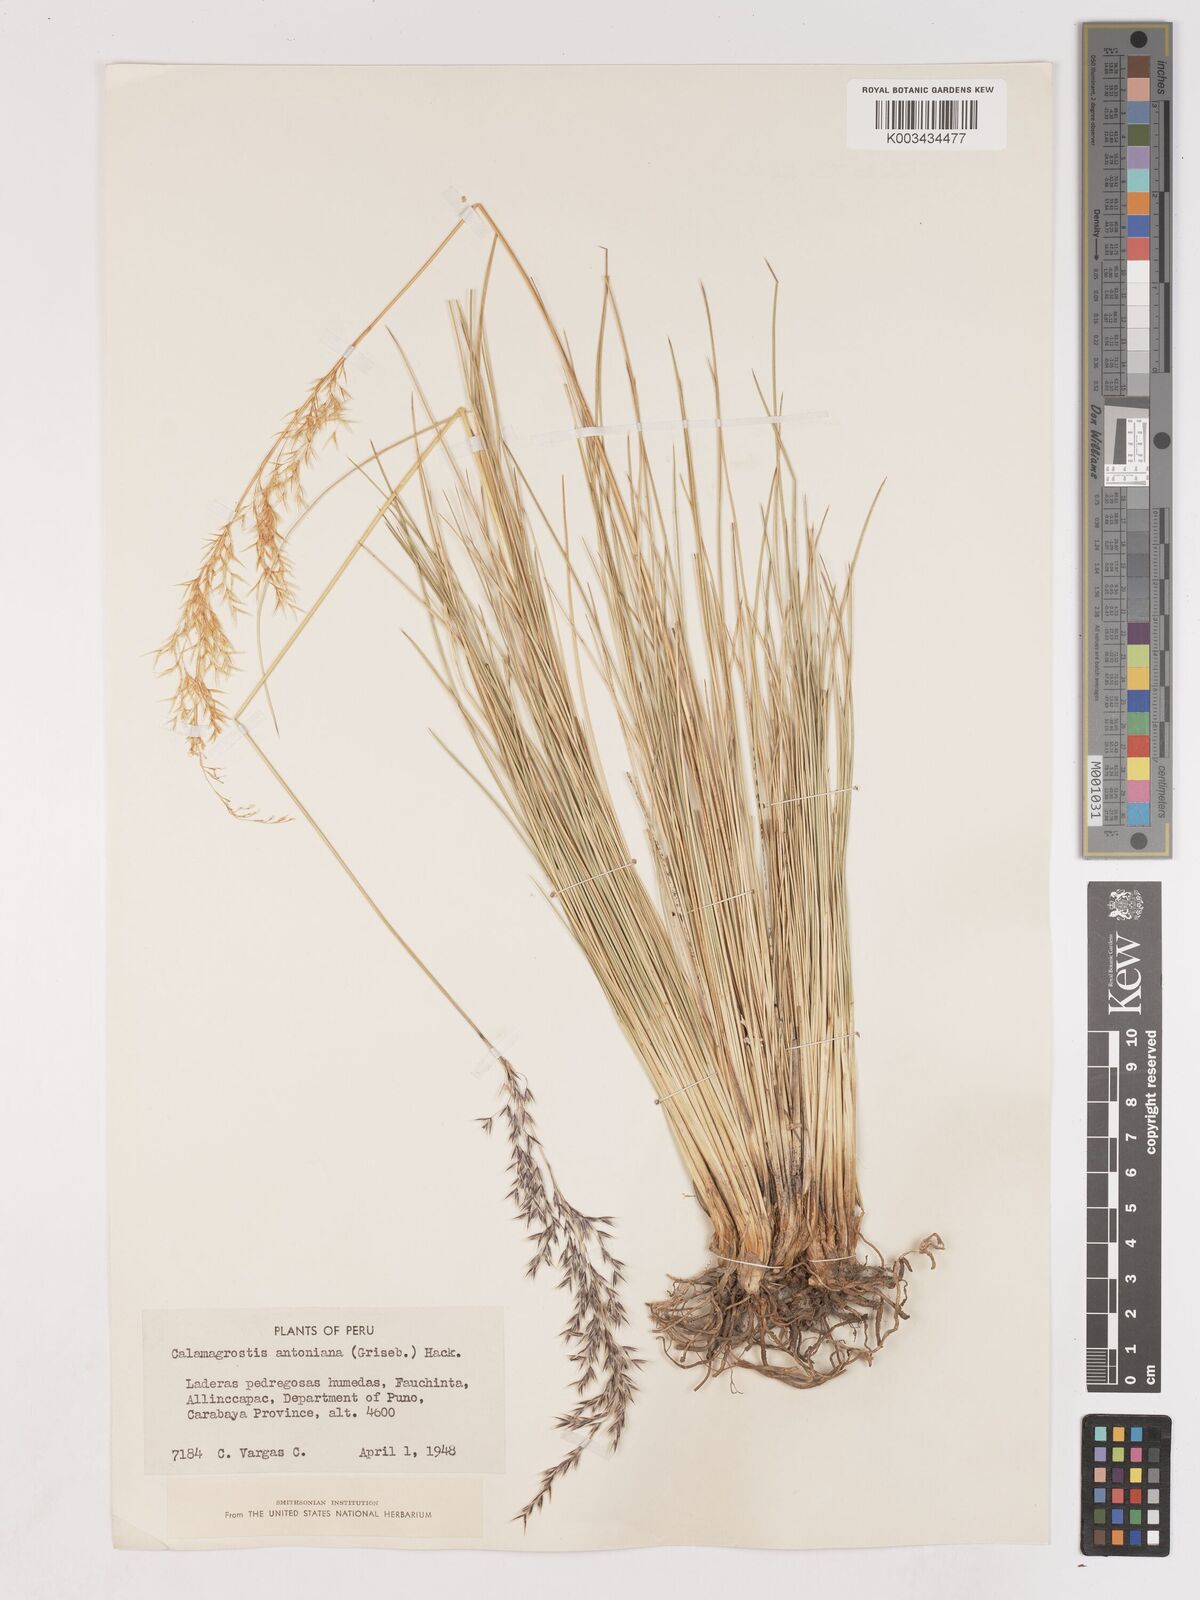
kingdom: Plantae
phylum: Tracheophyta
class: Liliopsida
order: Poales
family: Poaceae
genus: Cinnagrostis
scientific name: Cinnagrostis rigida
